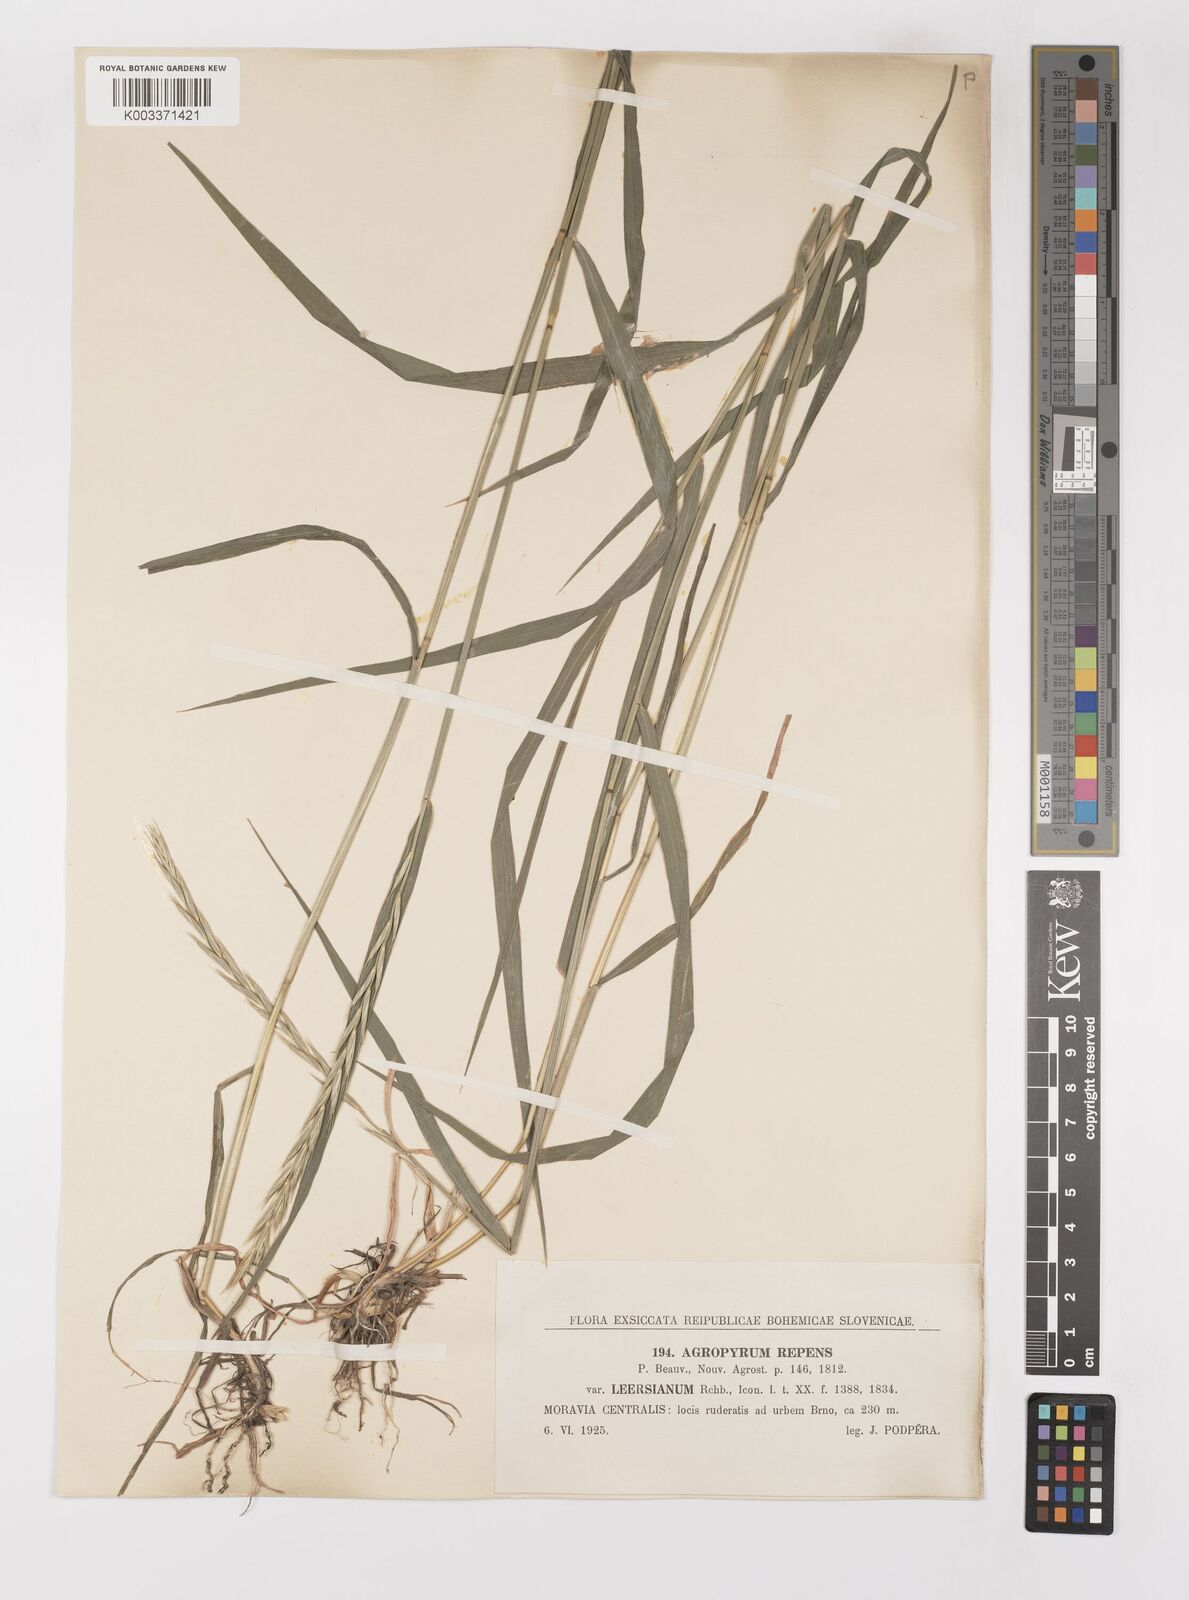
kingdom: Plantae
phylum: Tracheophyta
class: Liliopsida
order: Poales
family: Poaceae
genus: Elymus
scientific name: Elymus repens
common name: Quackgrass
